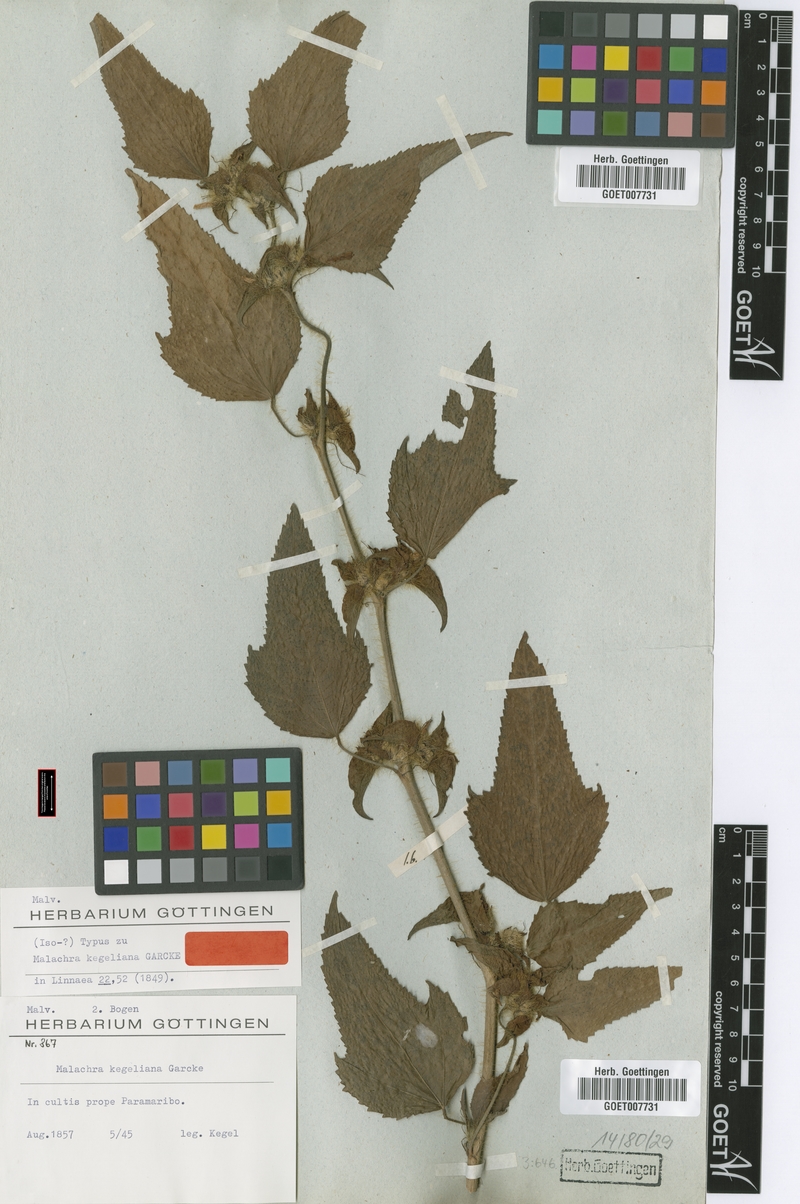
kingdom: Plantae
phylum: Tracheophyta
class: Magnoliopsida
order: Malvales
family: Malvaceae
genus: Malachra
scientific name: Malachra fasciata
